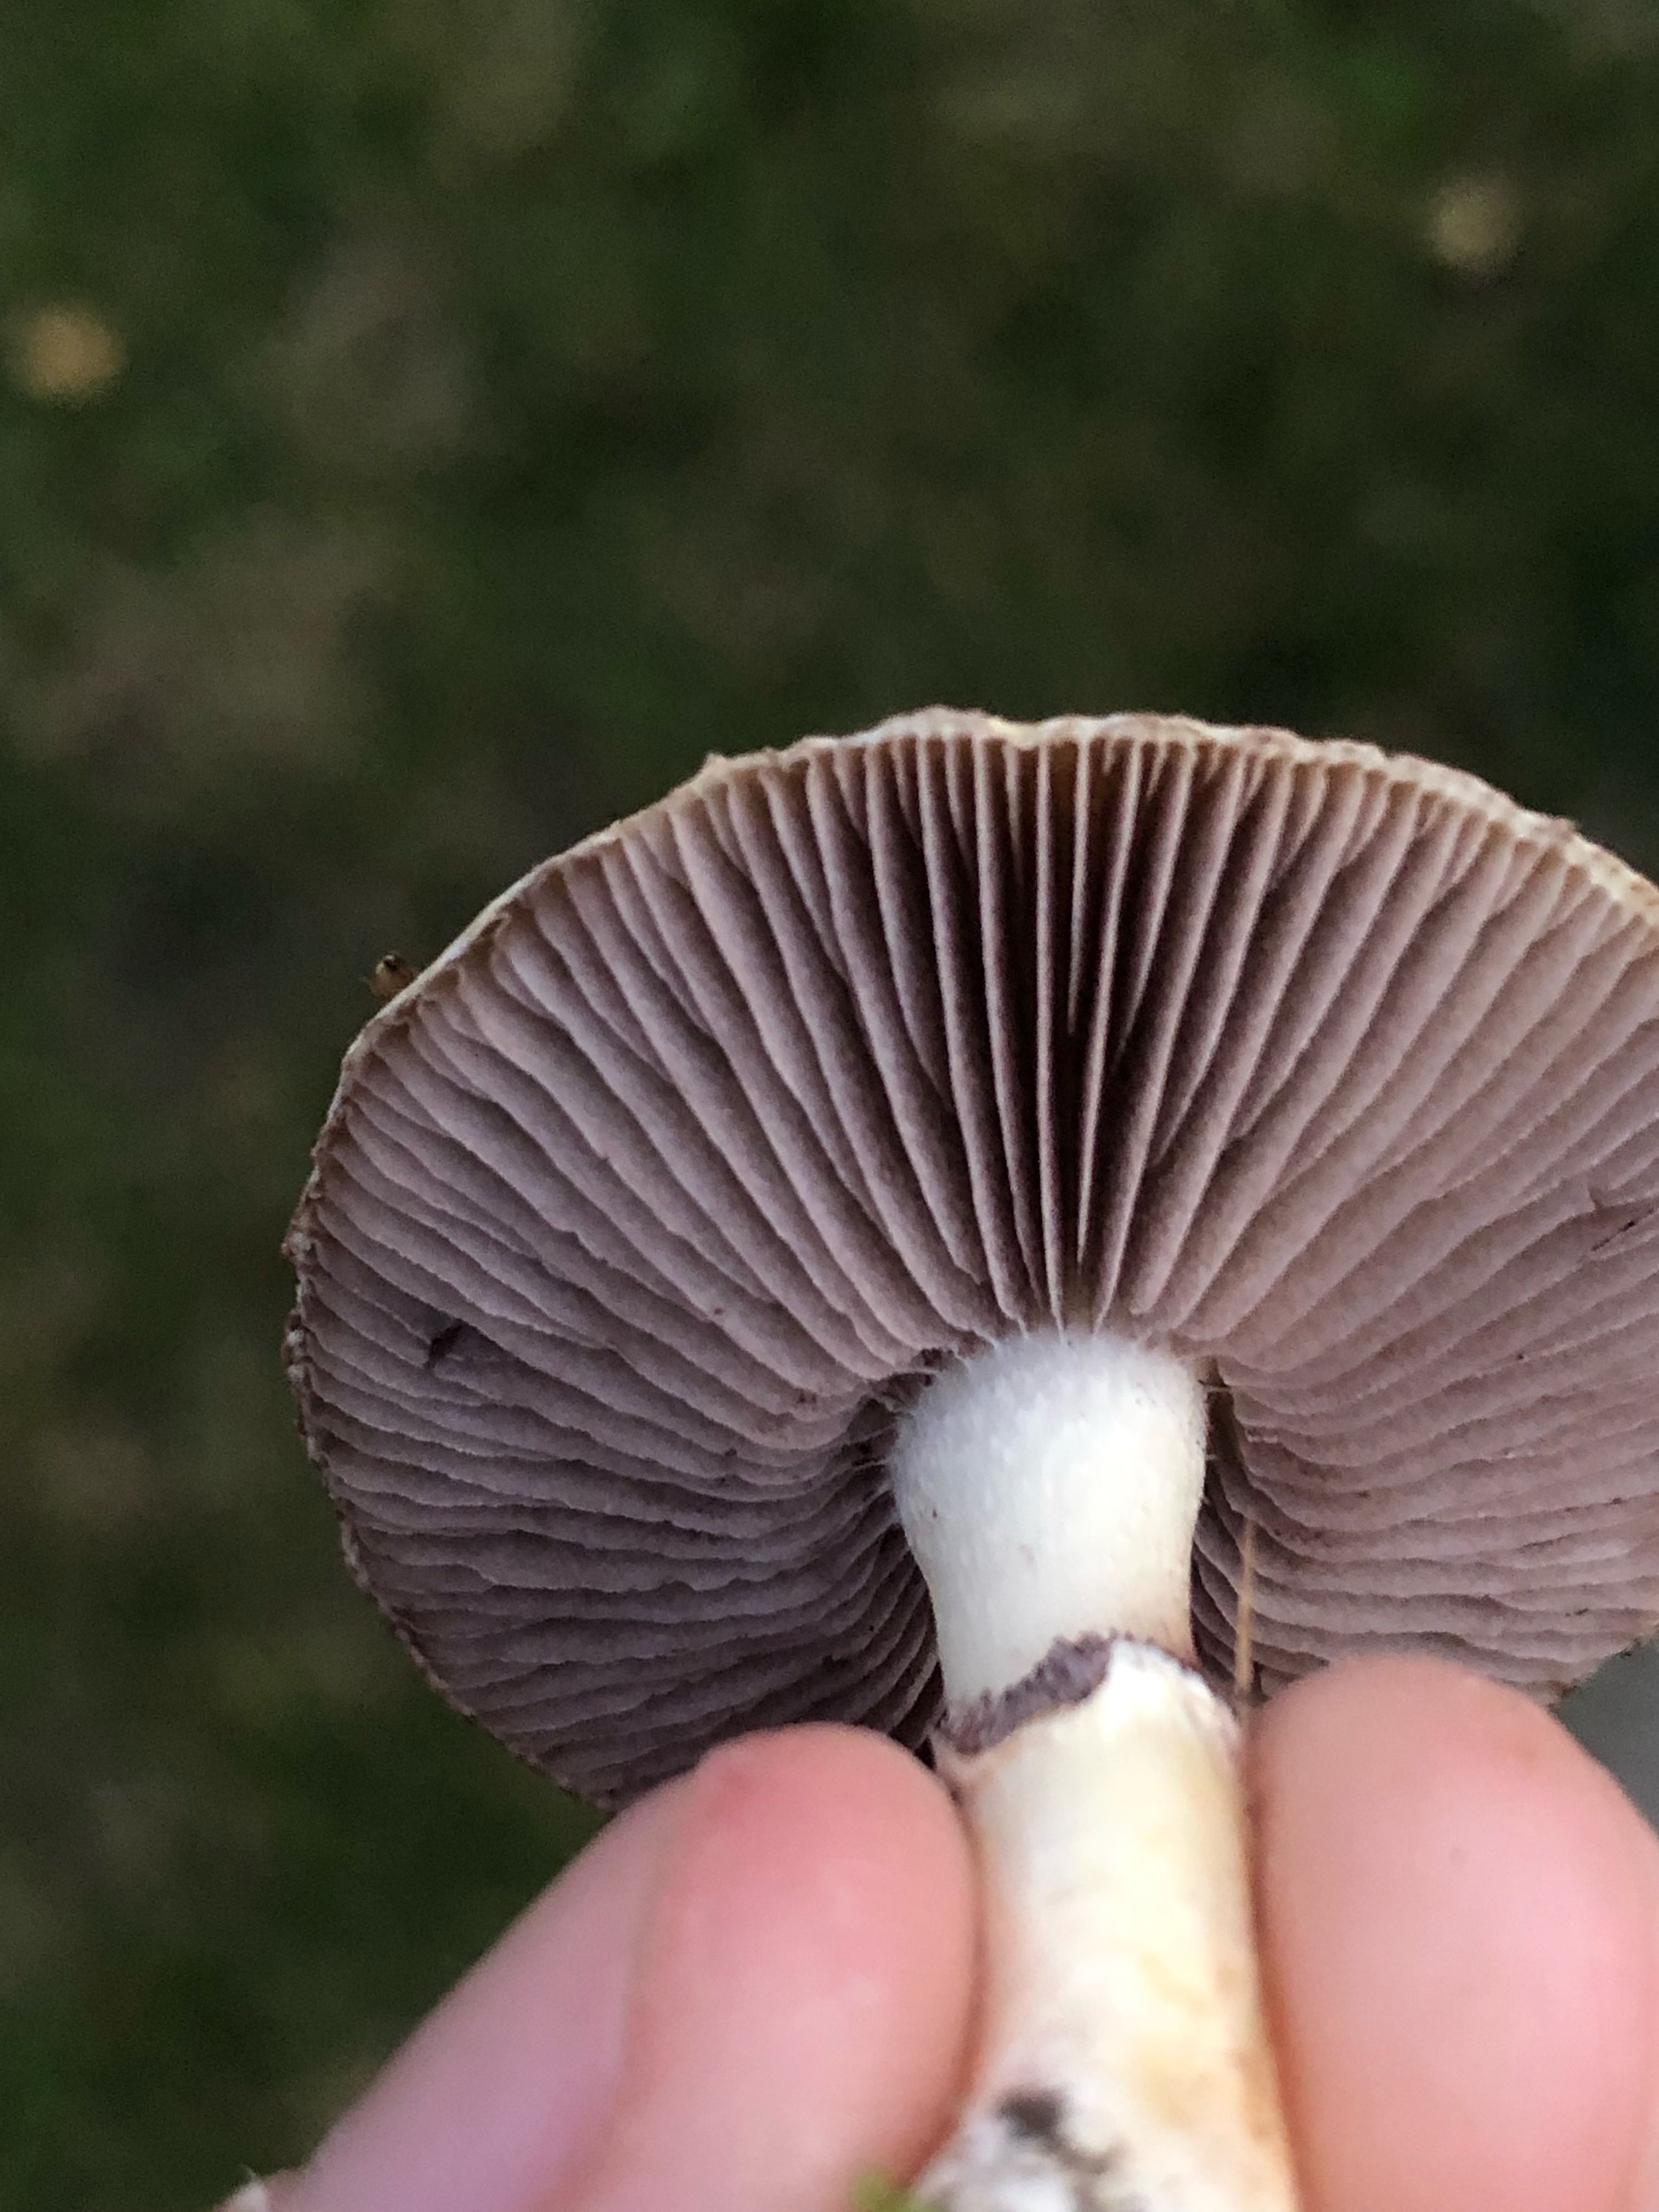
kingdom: Fungi
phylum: Basidiomycota
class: Agaricomycetes
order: Agaricales
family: Hymenogastraceae
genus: Psilocybe
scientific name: Psilocybe coronilla
